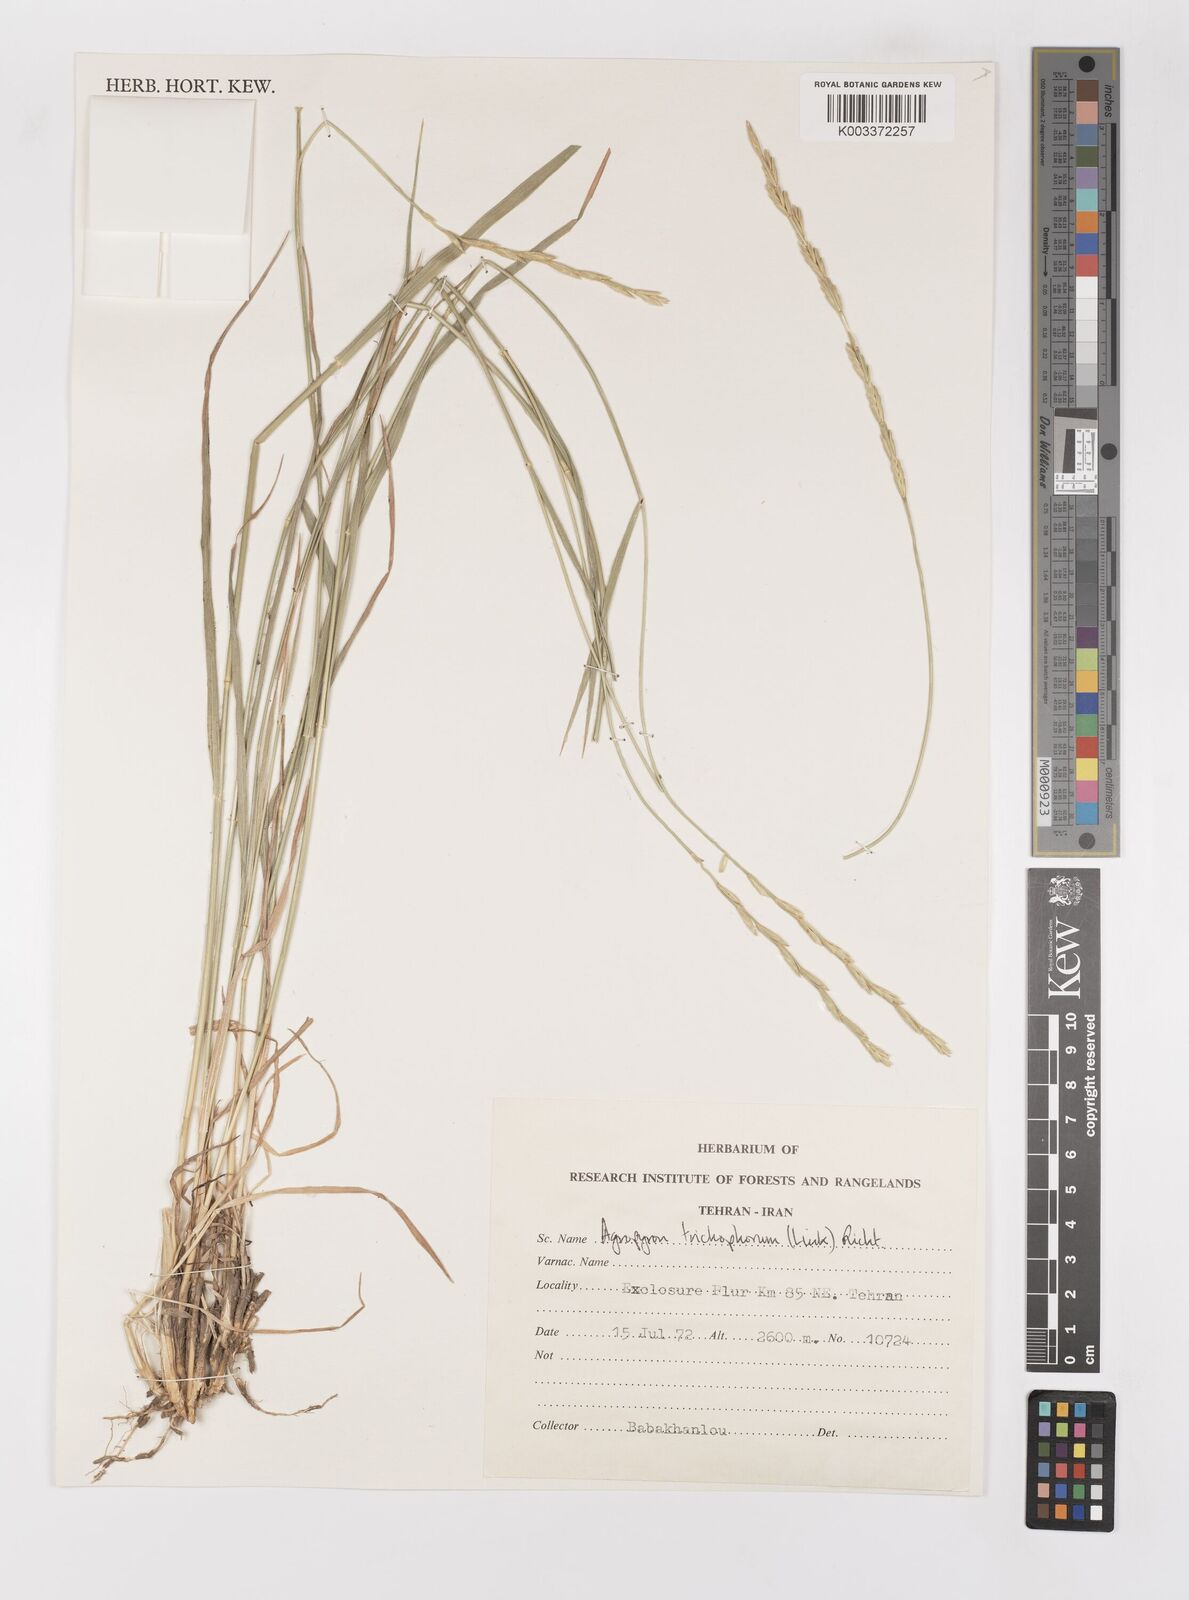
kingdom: Plantae
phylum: Tracheophyta
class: Liliopsida
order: Poales
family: Poaceae
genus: Thinopyrum
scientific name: Thinopyrum intermedium
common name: Intermediate wheatgrass
